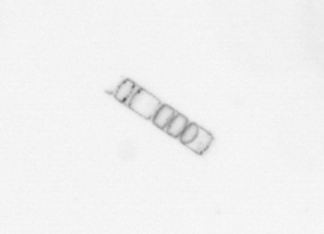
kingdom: Chromista
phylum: Ochrophyta
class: Bacillariophyceae
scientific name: Bacillariophyceae
